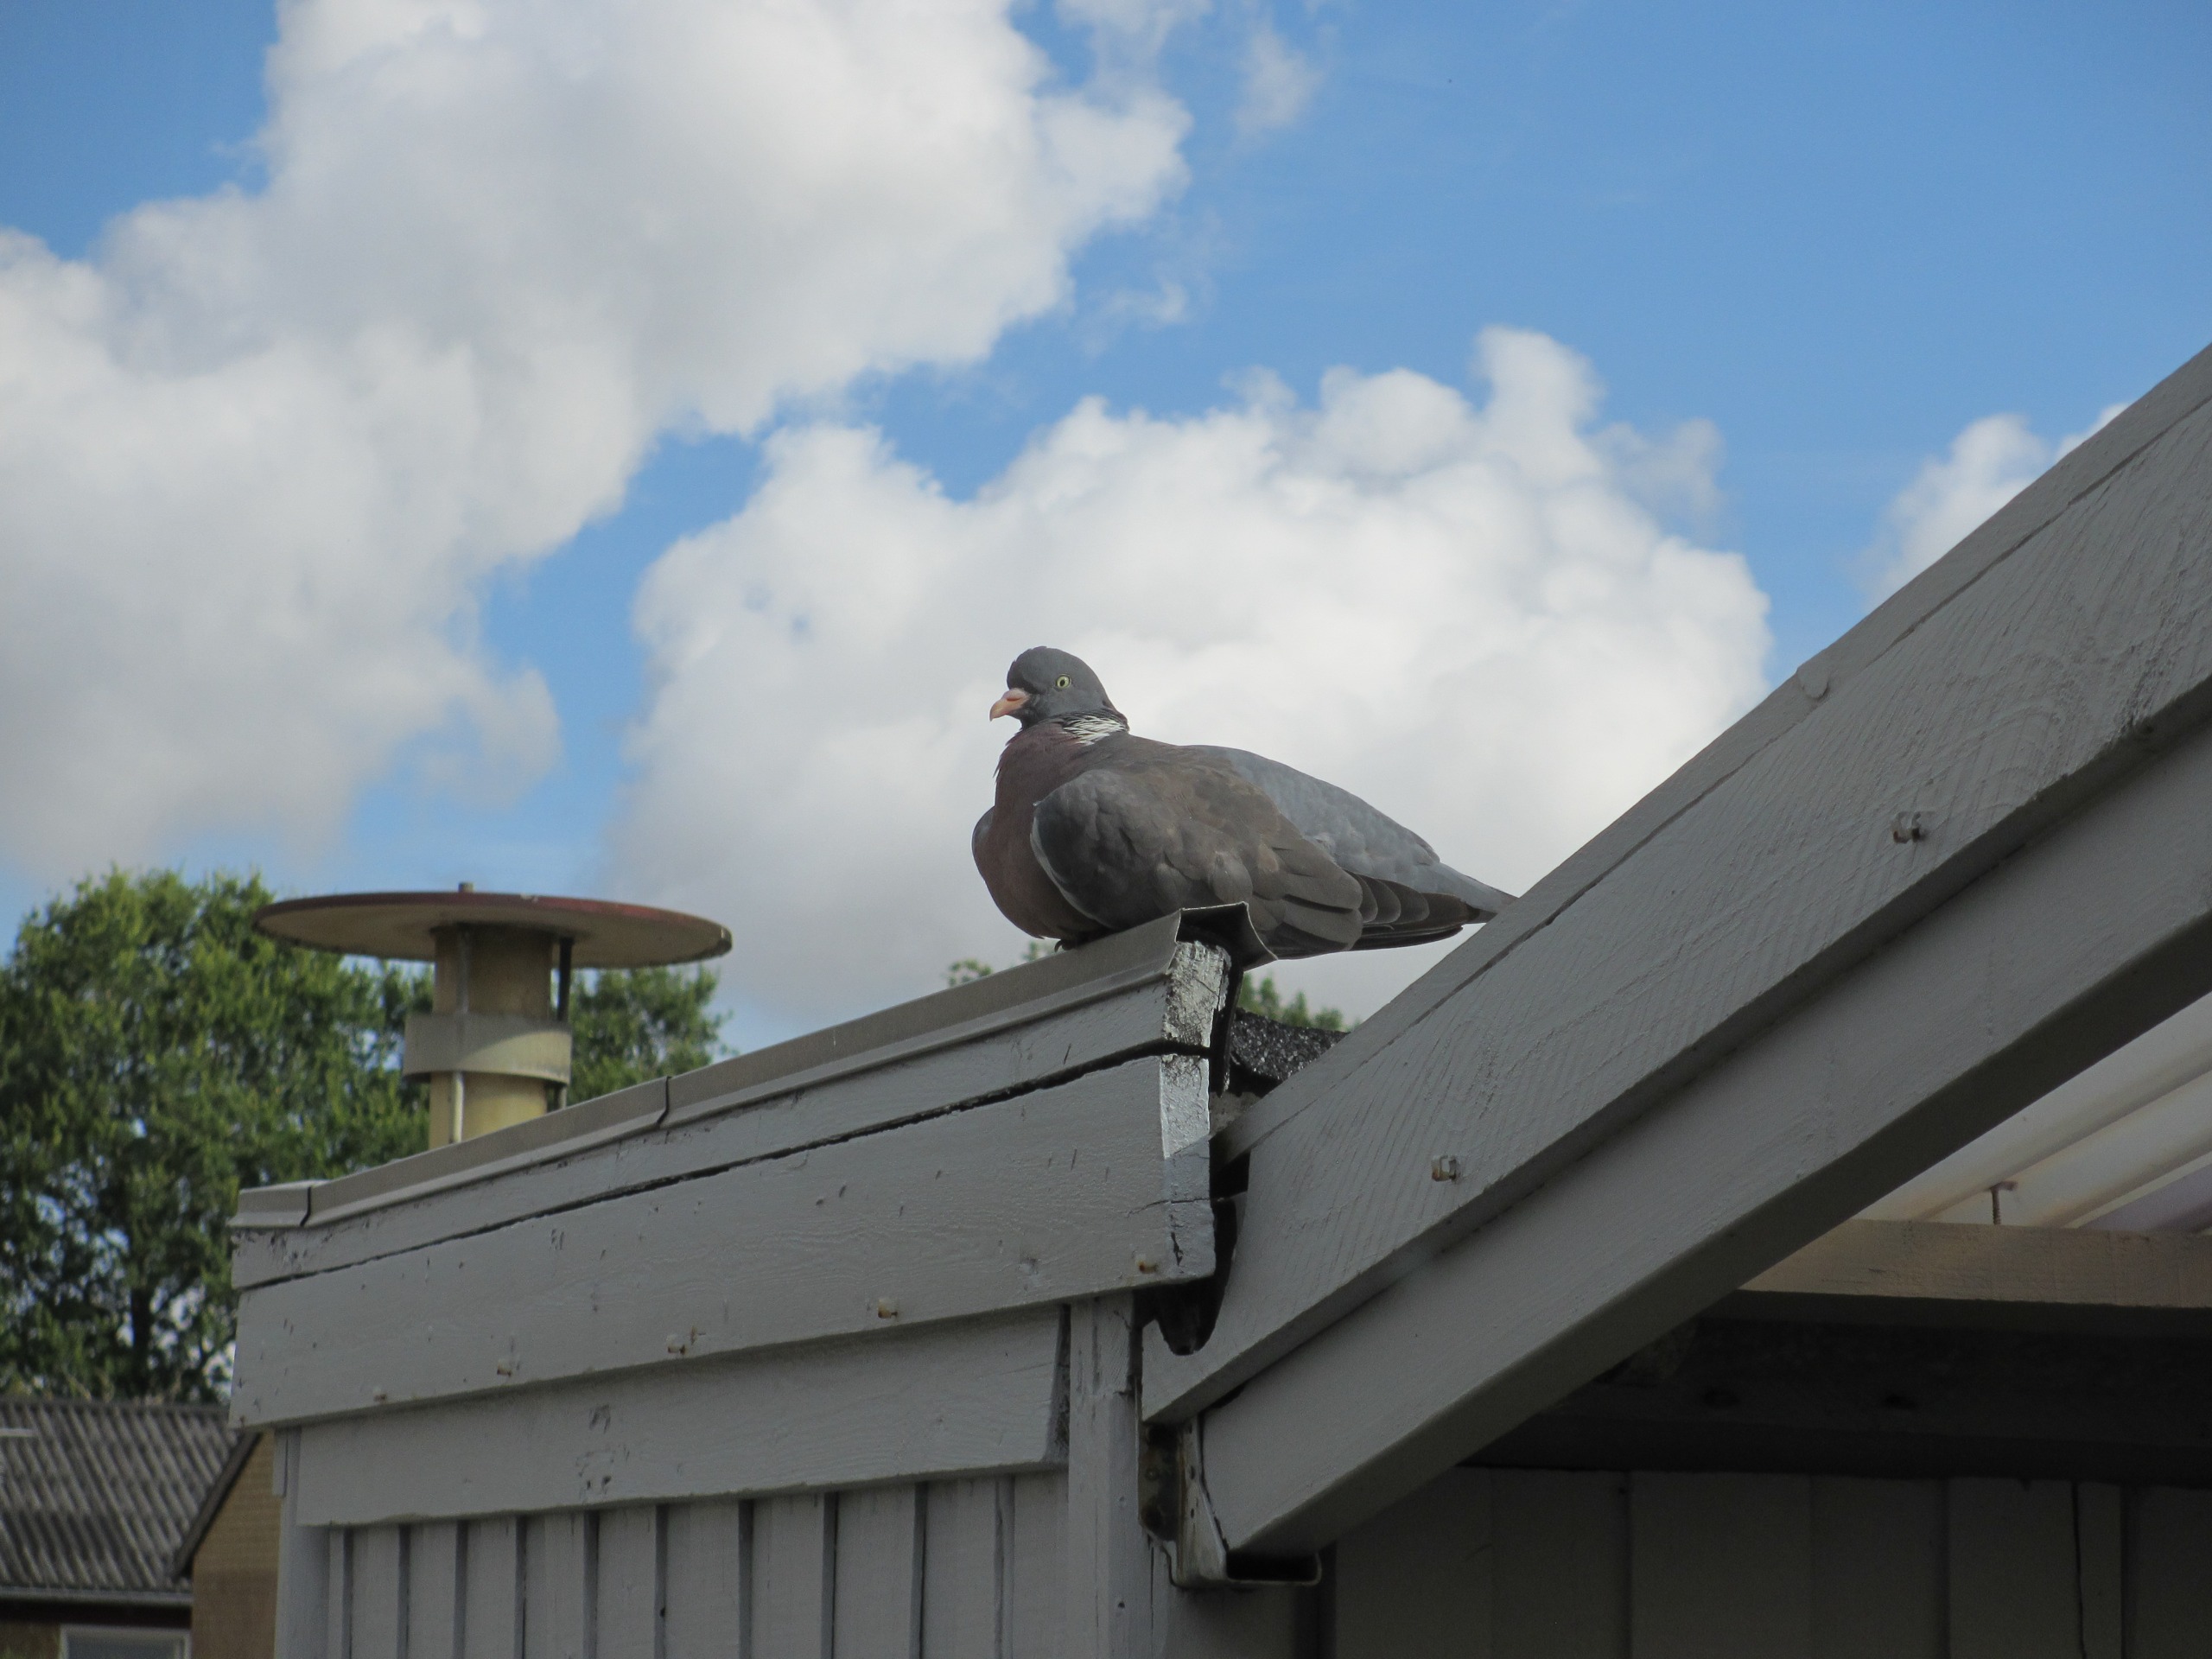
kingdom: Animalia
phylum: Chordata
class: Aves
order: Columbiformes
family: Columbidae
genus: Columba
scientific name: Columba palumbus
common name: Ringdue
